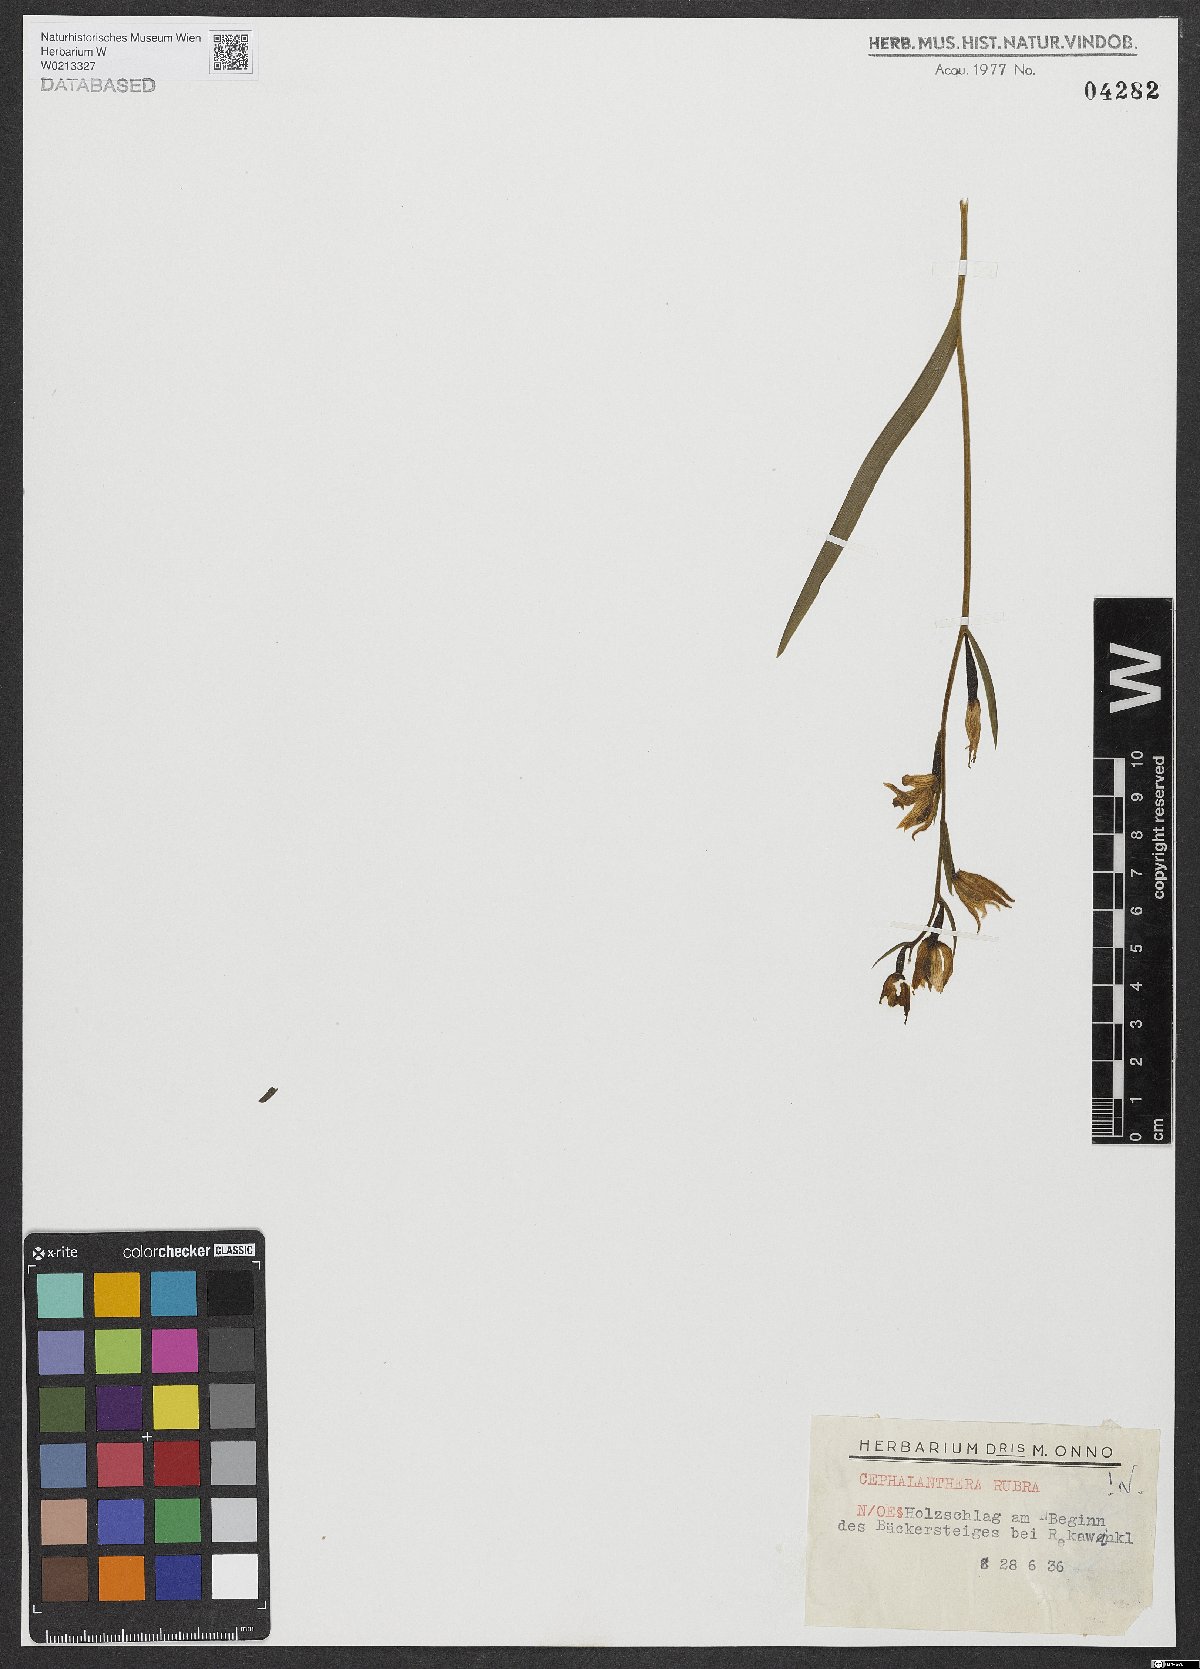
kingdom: Plantae
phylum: Tracheophyta
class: Liliopsida
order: Asparagales
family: Orchidaceae
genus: Cephalanthera
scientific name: Cephalanthera rubra
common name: Red helleborine
